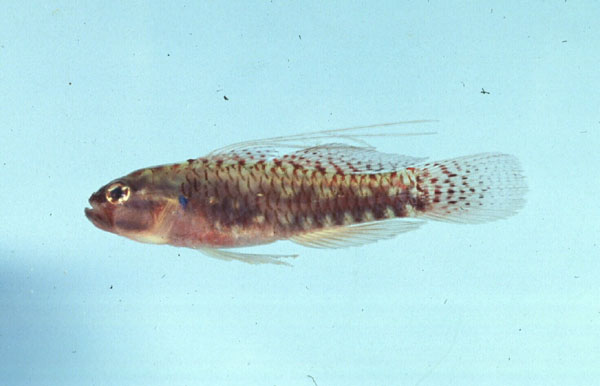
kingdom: Animalia
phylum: Chordata
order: Perciformes
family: Gobiidae
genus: Eviota
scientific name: Eviota prasites
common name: Hairfin eviota
